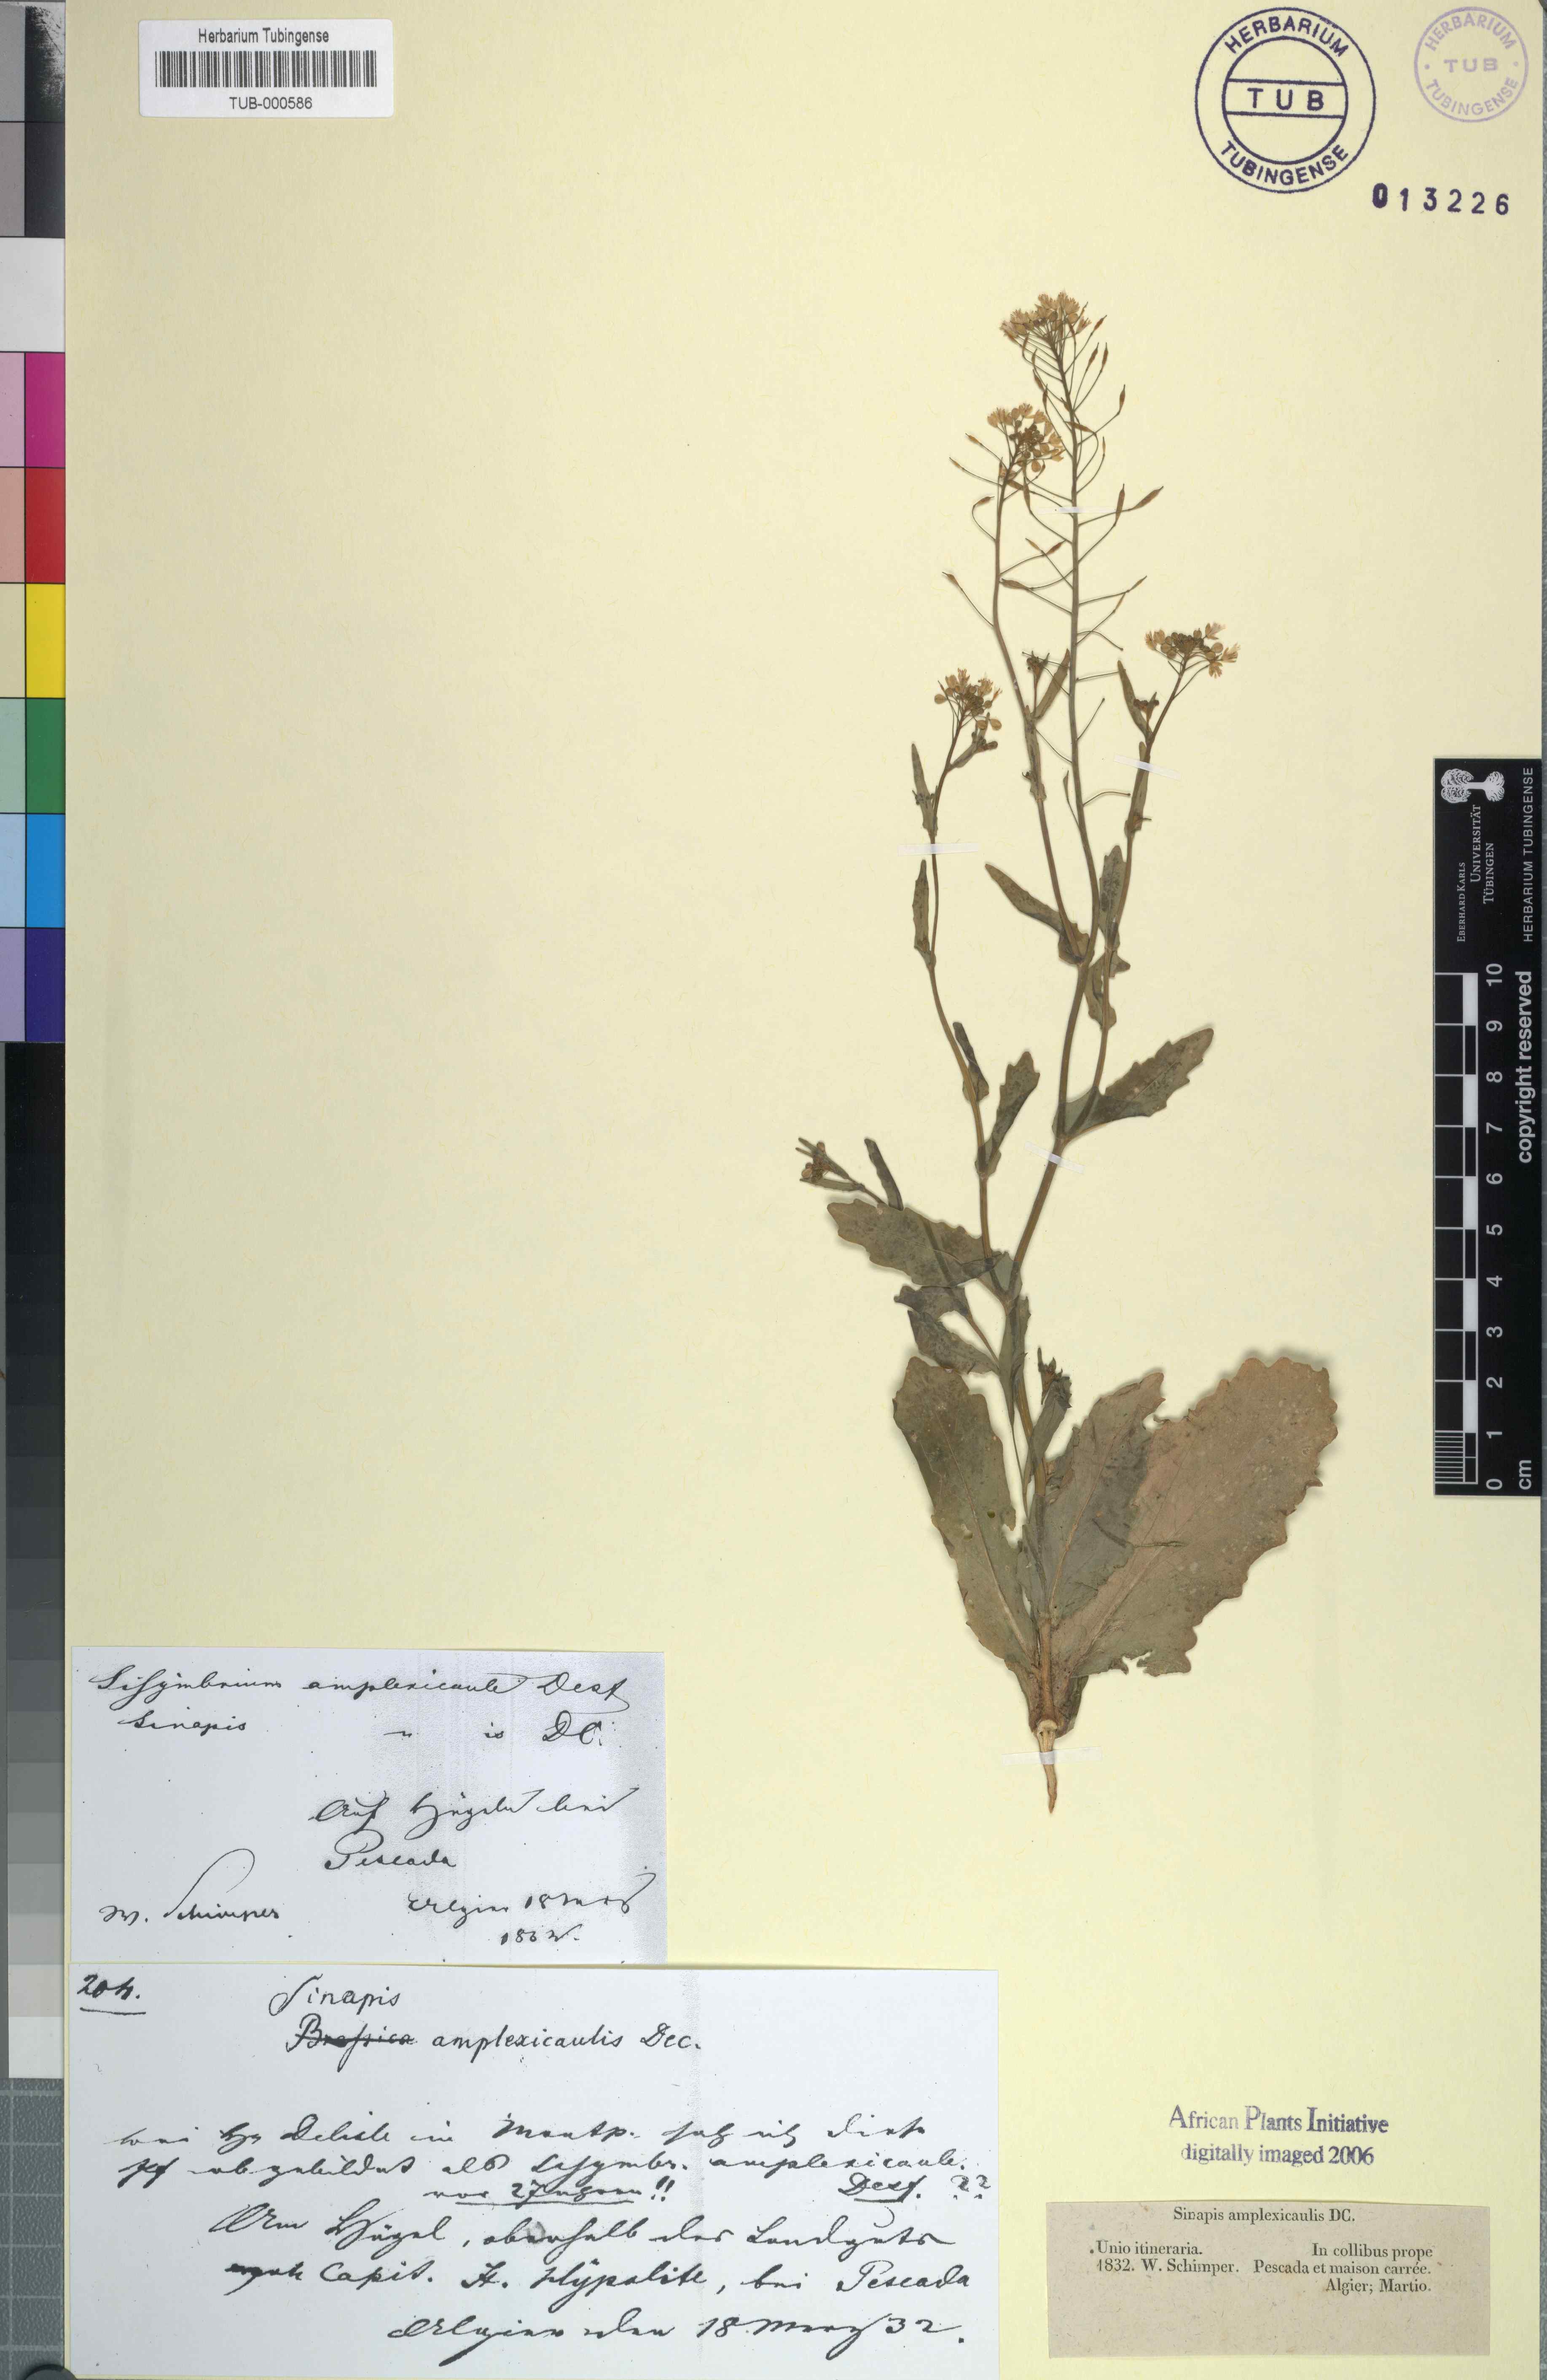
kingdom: Plantae
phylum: Tracheophyta
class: Magnoliopsida
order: Brassicales
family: Brassicaceae
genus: Brassica
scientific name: Brassica souliei
